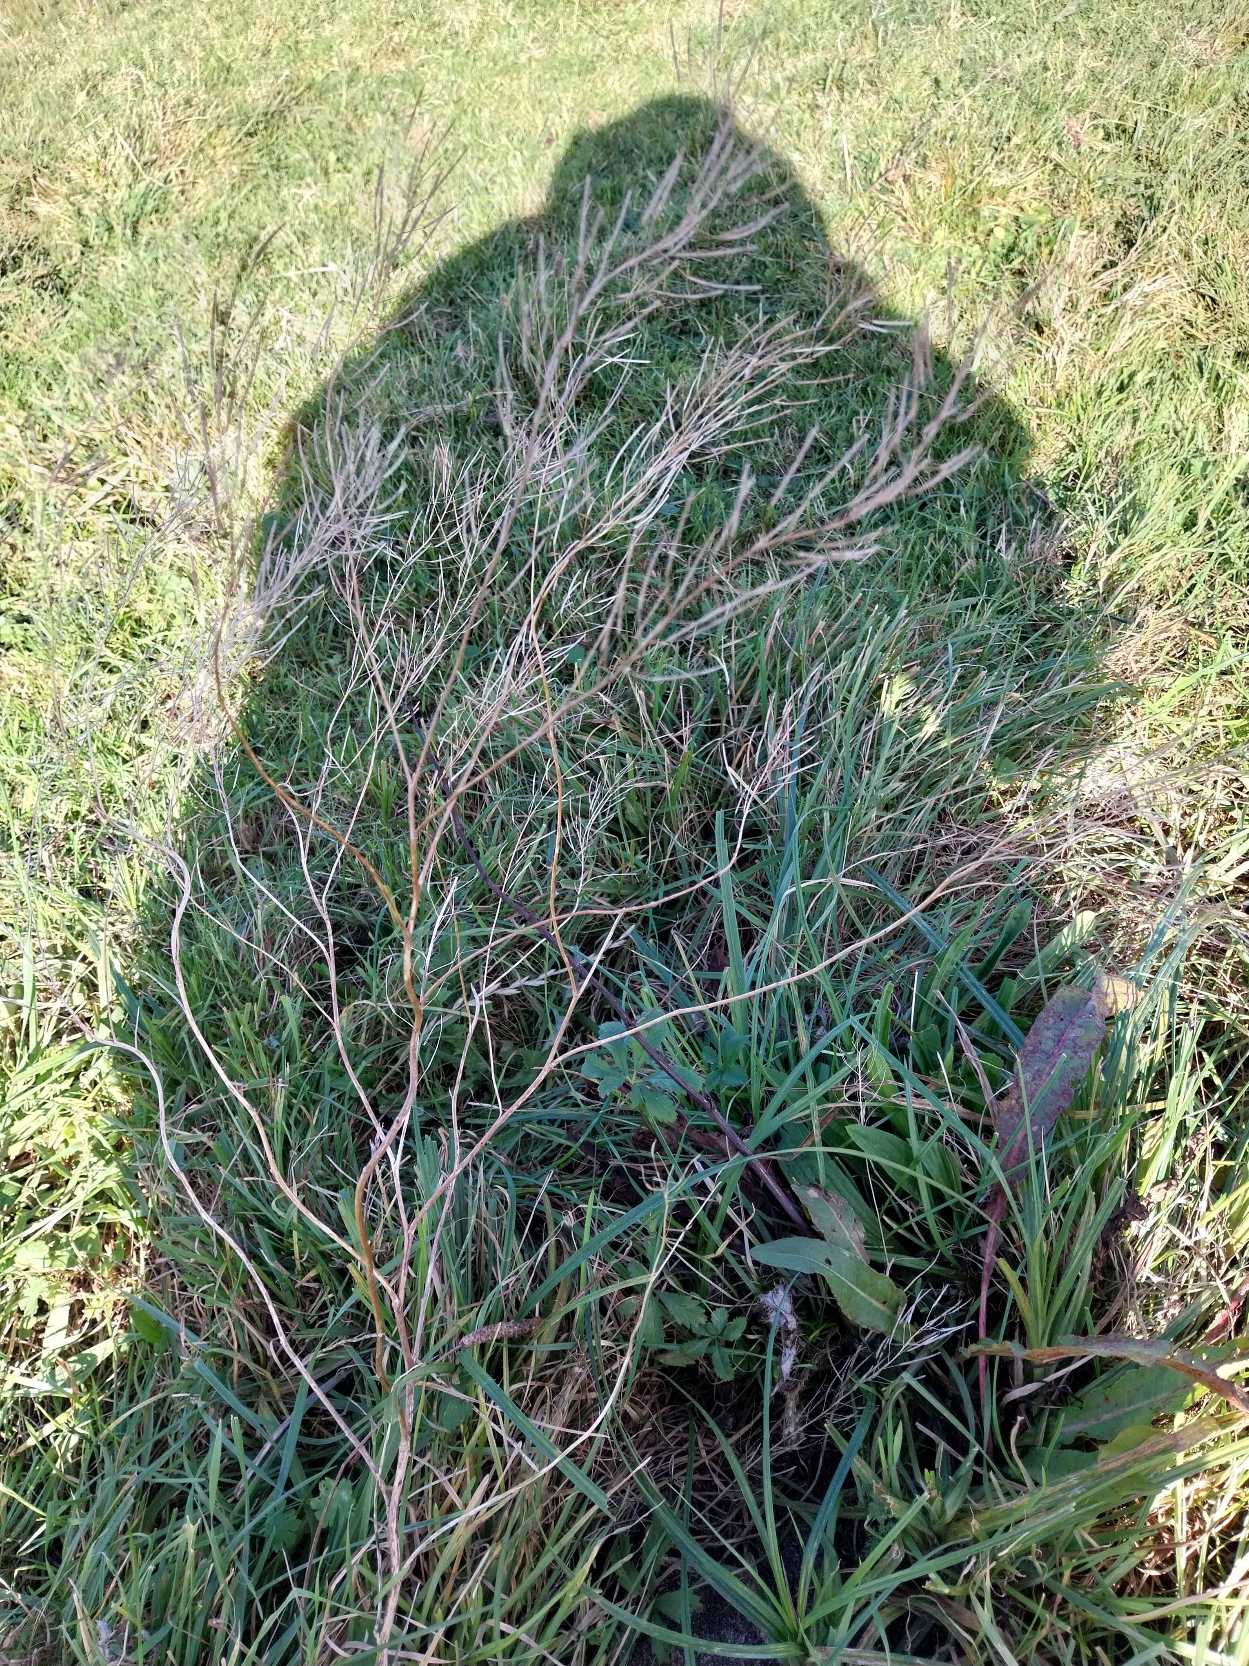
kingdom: Plantae
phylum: Tracheophyta
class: Magnoliopsida
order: Brassicales
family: Brassicaceae
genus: Descurainia
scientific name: Descurainia sophia
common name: Finbladet vejsennep
